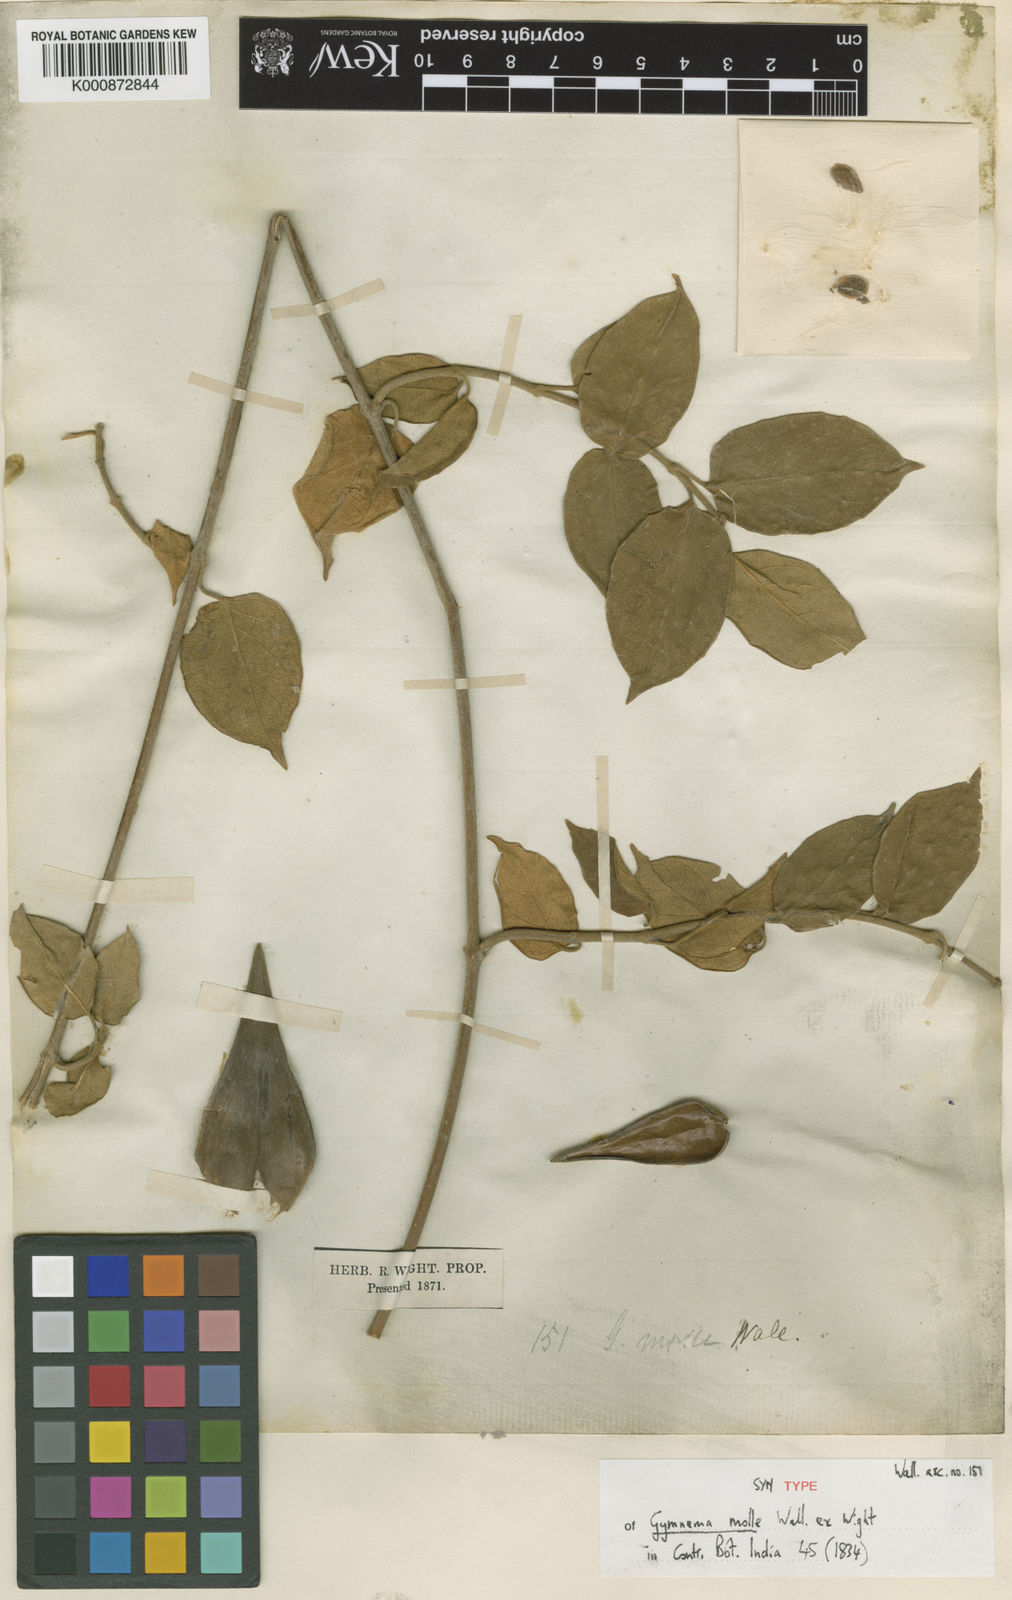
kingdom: Plantae
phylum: Tracheophyta
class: Magnoliopsida
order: Gentianales
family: Apocynaceae
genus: Gymnema
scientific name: Gymnema molle
